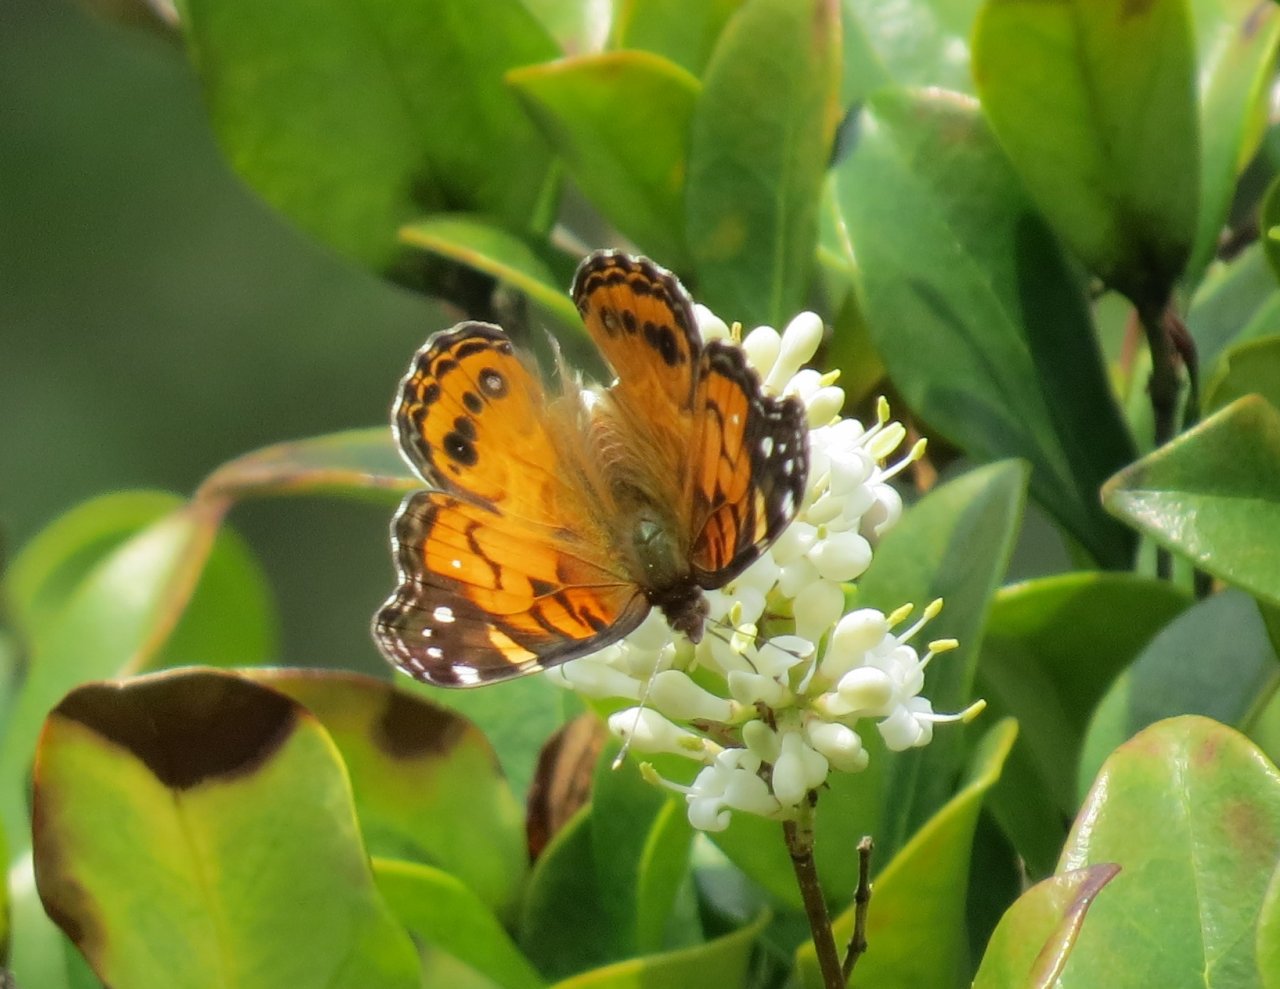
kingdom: Animalia
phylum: Arthropoda
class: Insecta
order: Lepidoptera
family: Nymphalidae
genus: Vanessa
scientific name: Vanessa virginiensis
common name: American Lady
